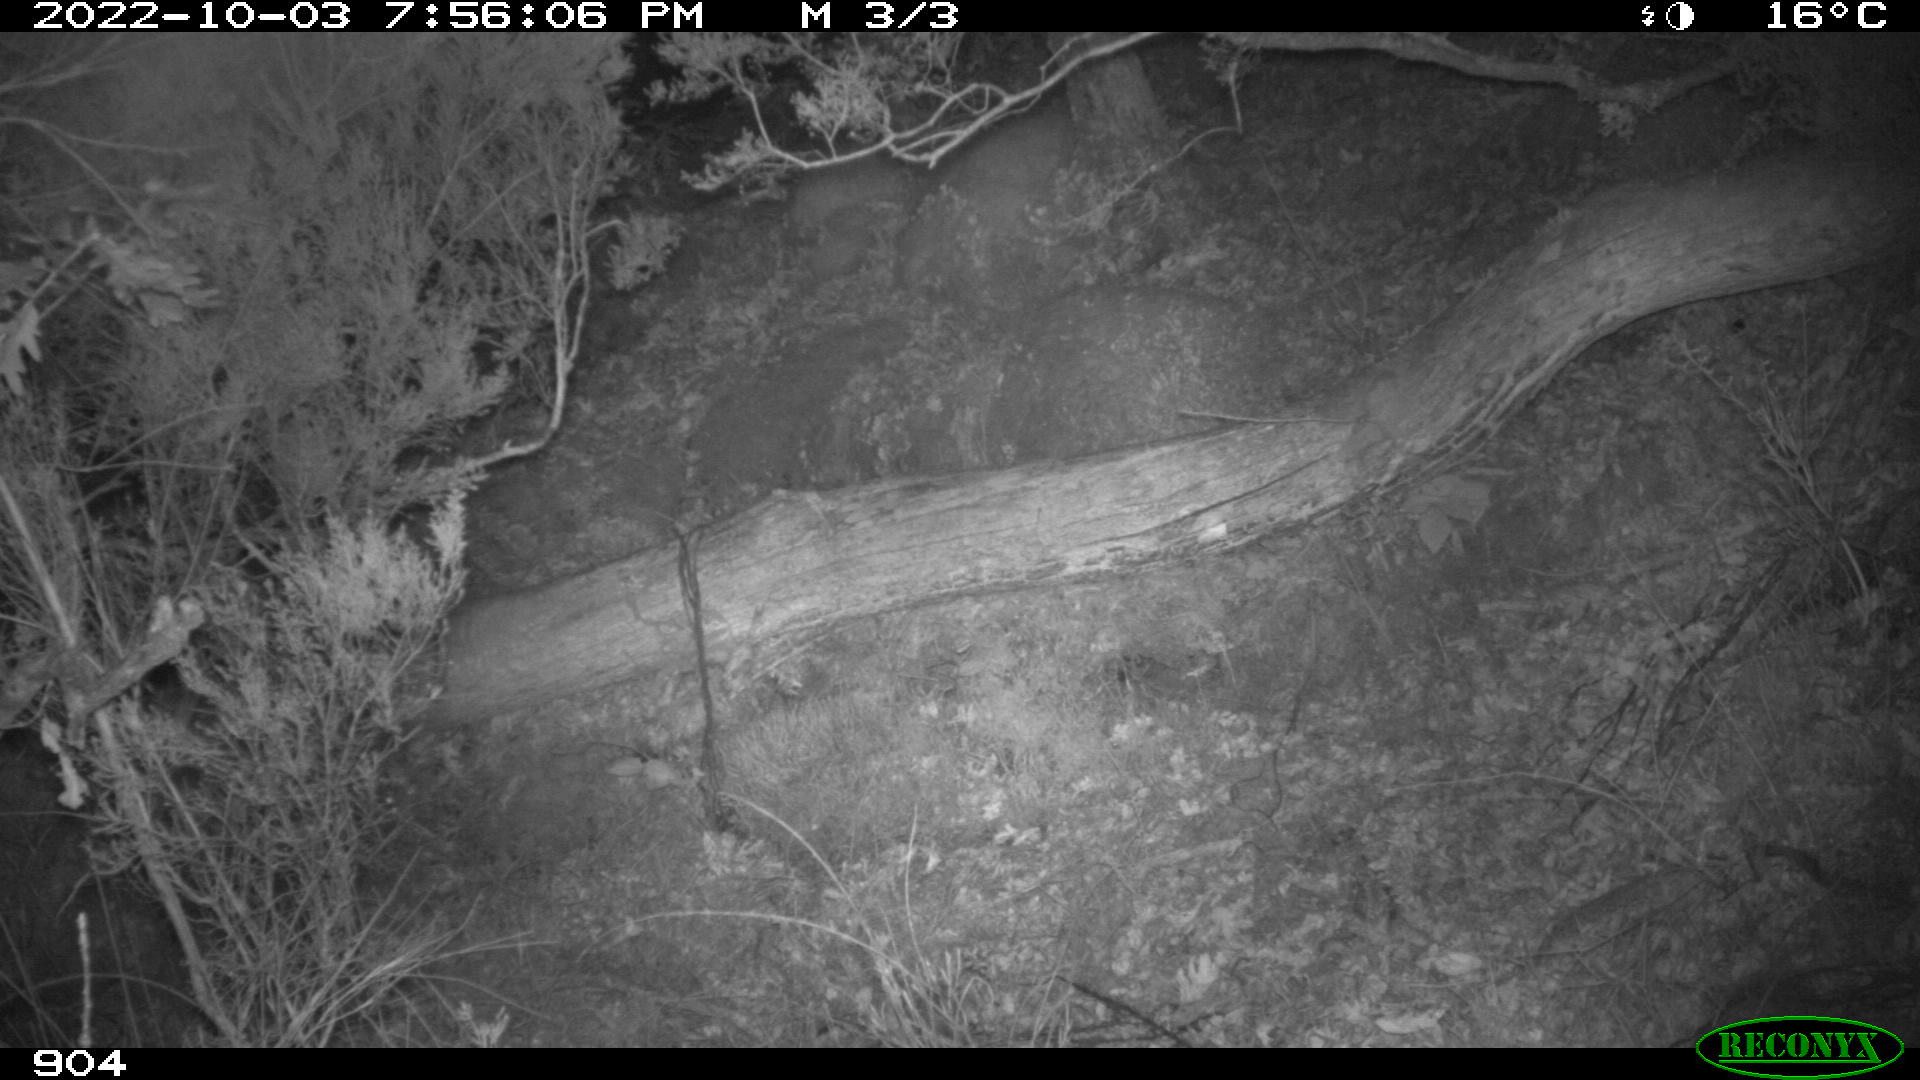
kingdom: Animalia
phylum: Chordata
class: Mammalia
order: Artiodactyla
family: Suidae
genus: Sus
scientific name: Sus scrofa
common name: Wild boar
